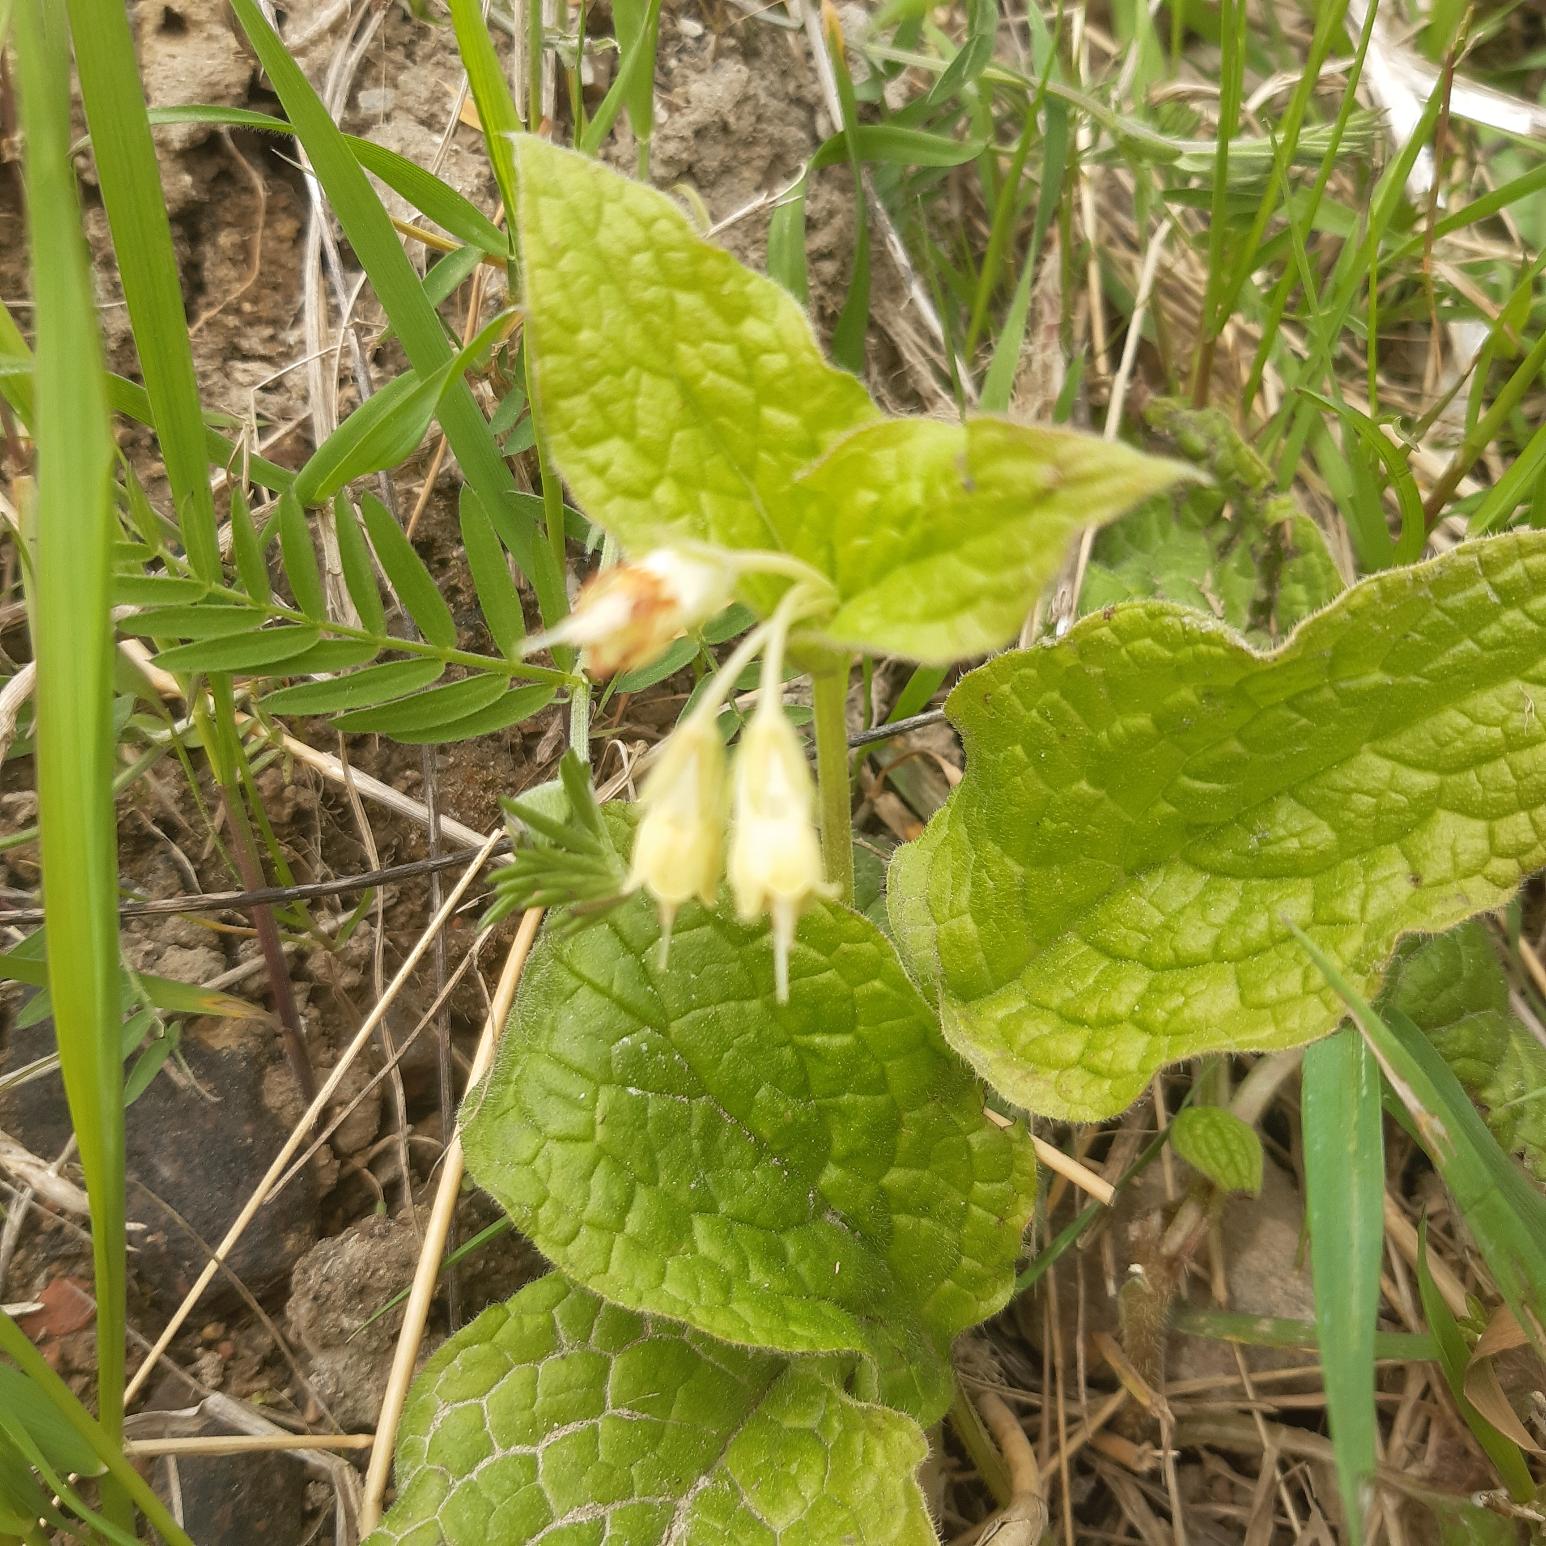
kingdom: Plantae
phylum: Tracheophyta
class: Magnoliopsida
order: Boraginales
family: Boraginaceae
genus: Symphytum
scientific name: Symphytum bulbosum
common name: Bleggul kulsukker
